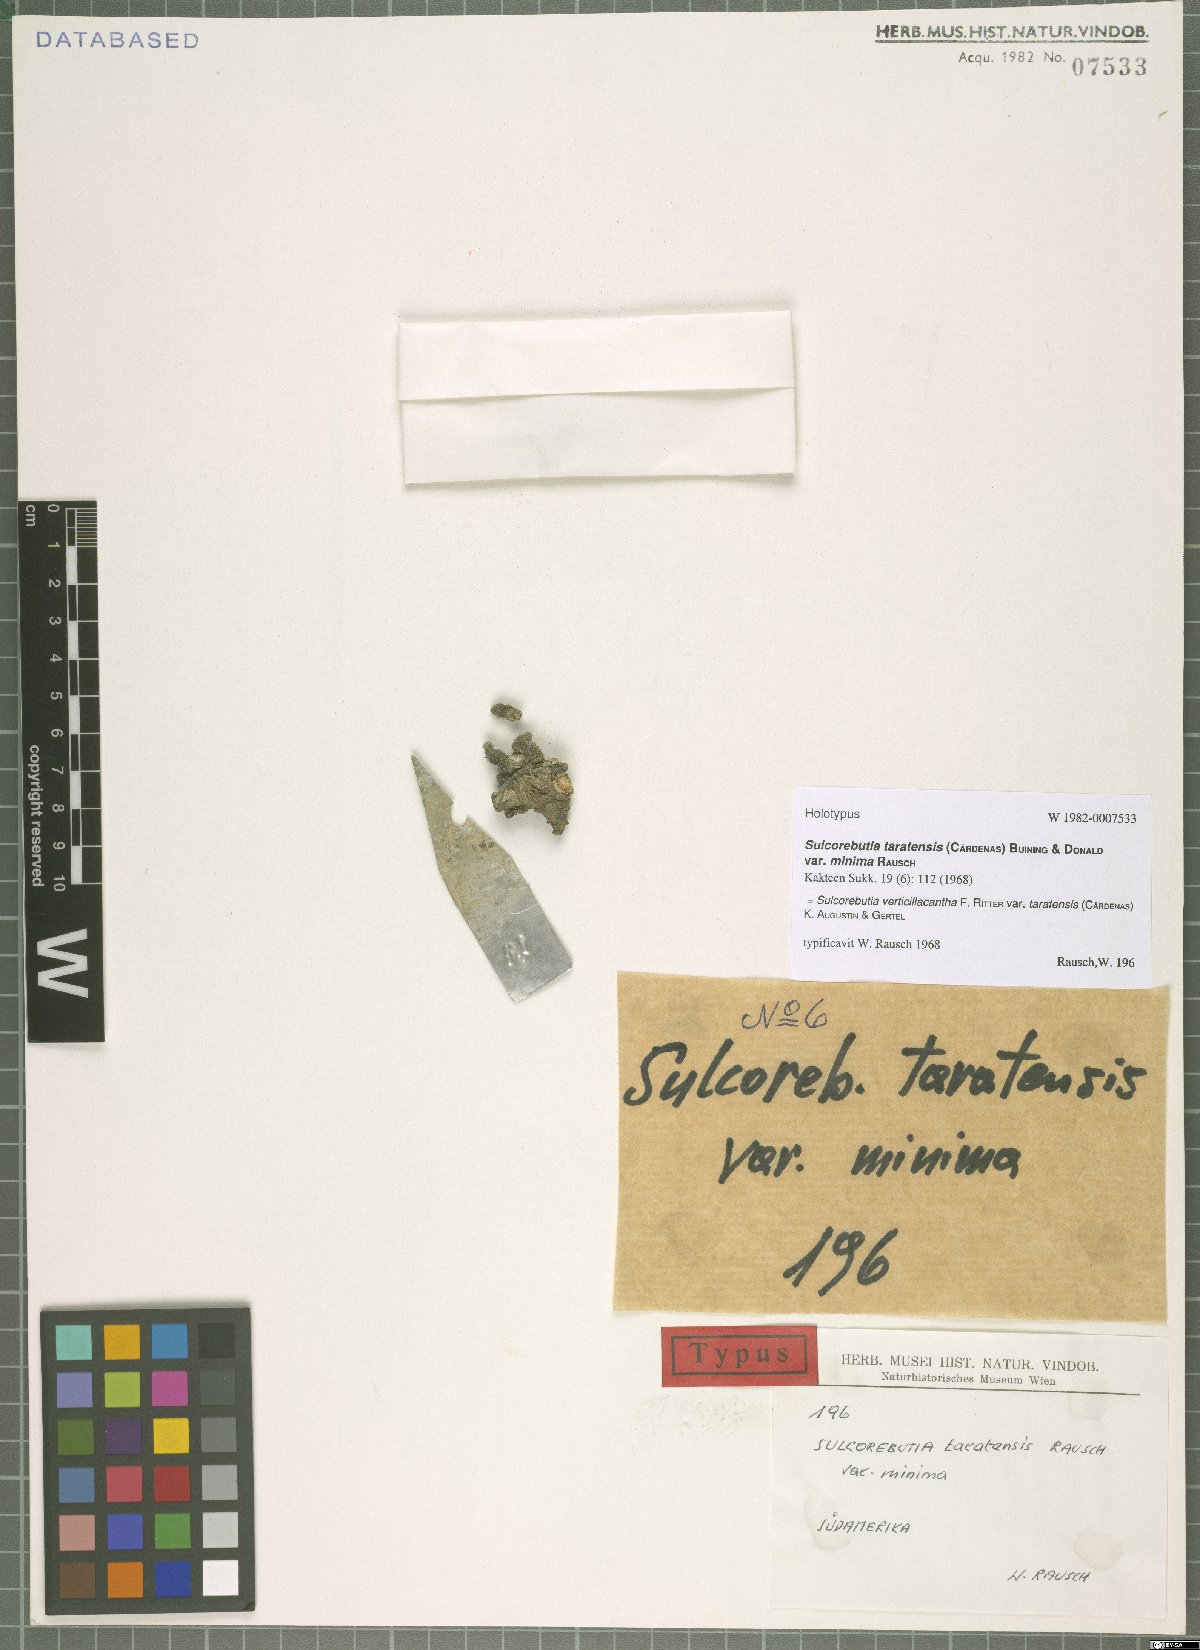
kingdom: Plantae
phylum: Tracheophyta
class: Magnoliopsida
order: Caryophyllales
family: Cactaceae
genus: Weingartia
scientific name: Weingartia steinbachii
